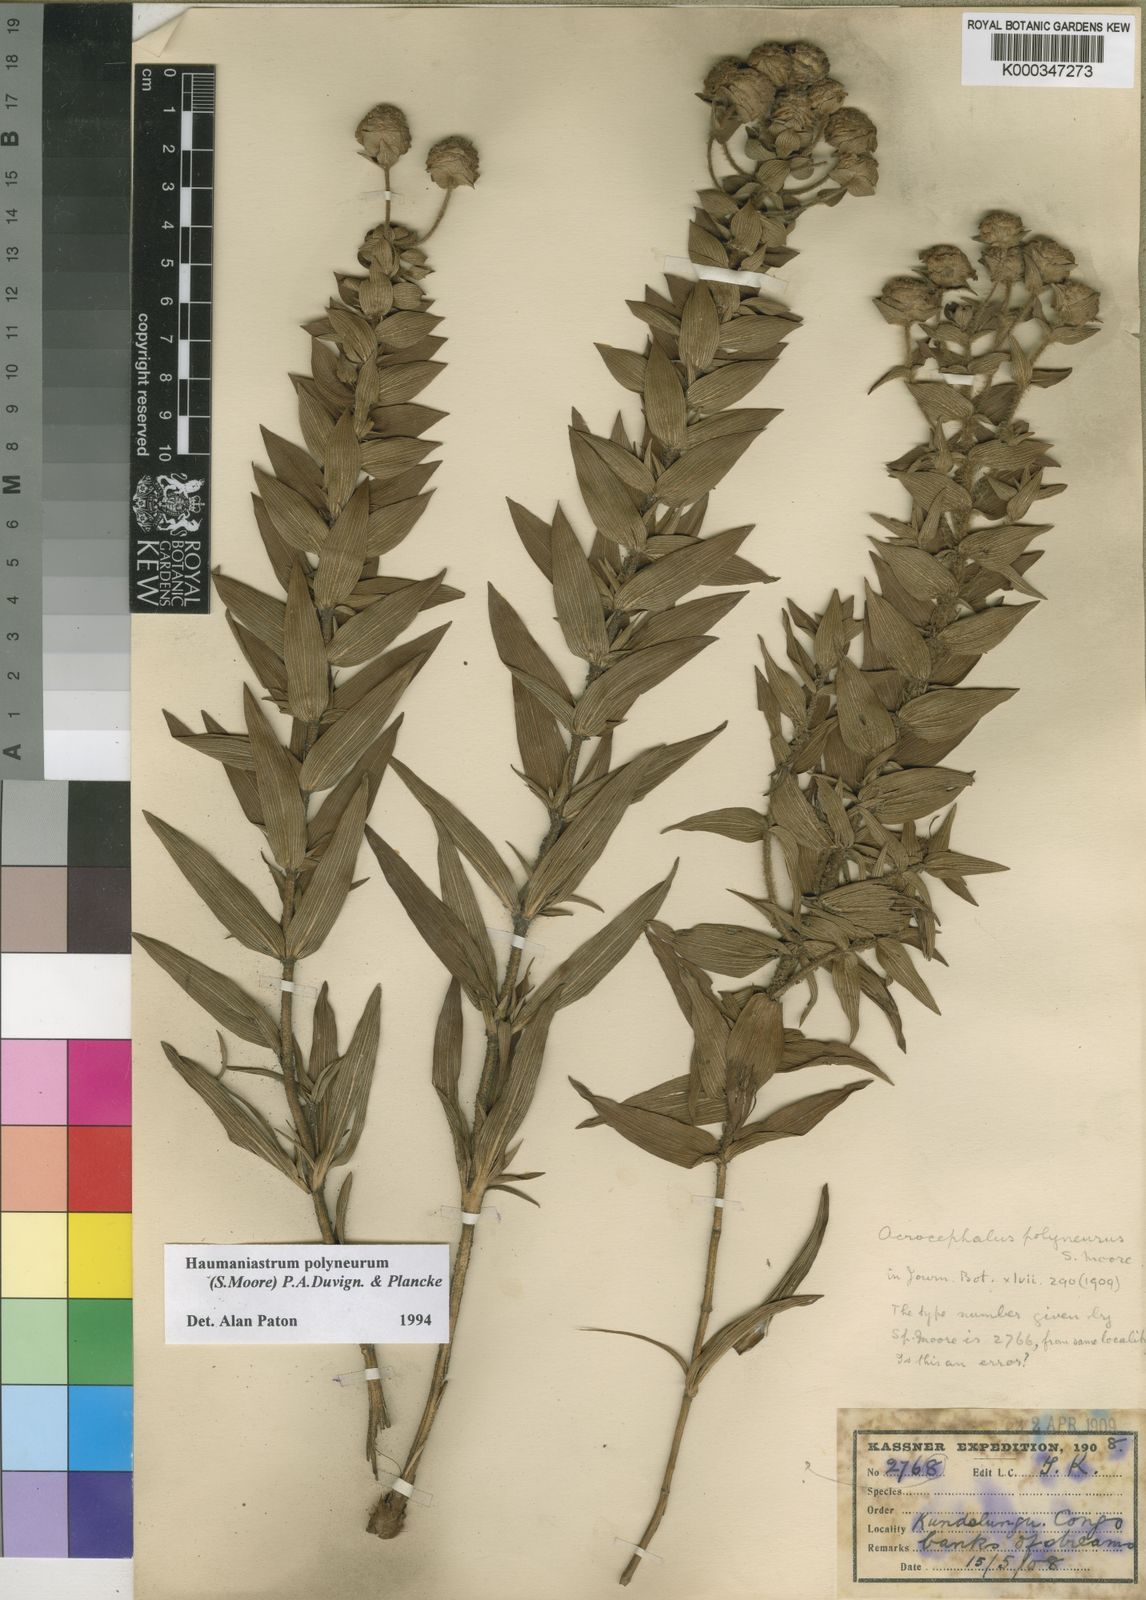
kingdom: Plantae
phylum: Tracheophyta
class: Magnoliopsida
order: Lamiales
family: Lamiaceae
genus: Haumaniastrum
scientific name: Haumaniastrum polyneurum
